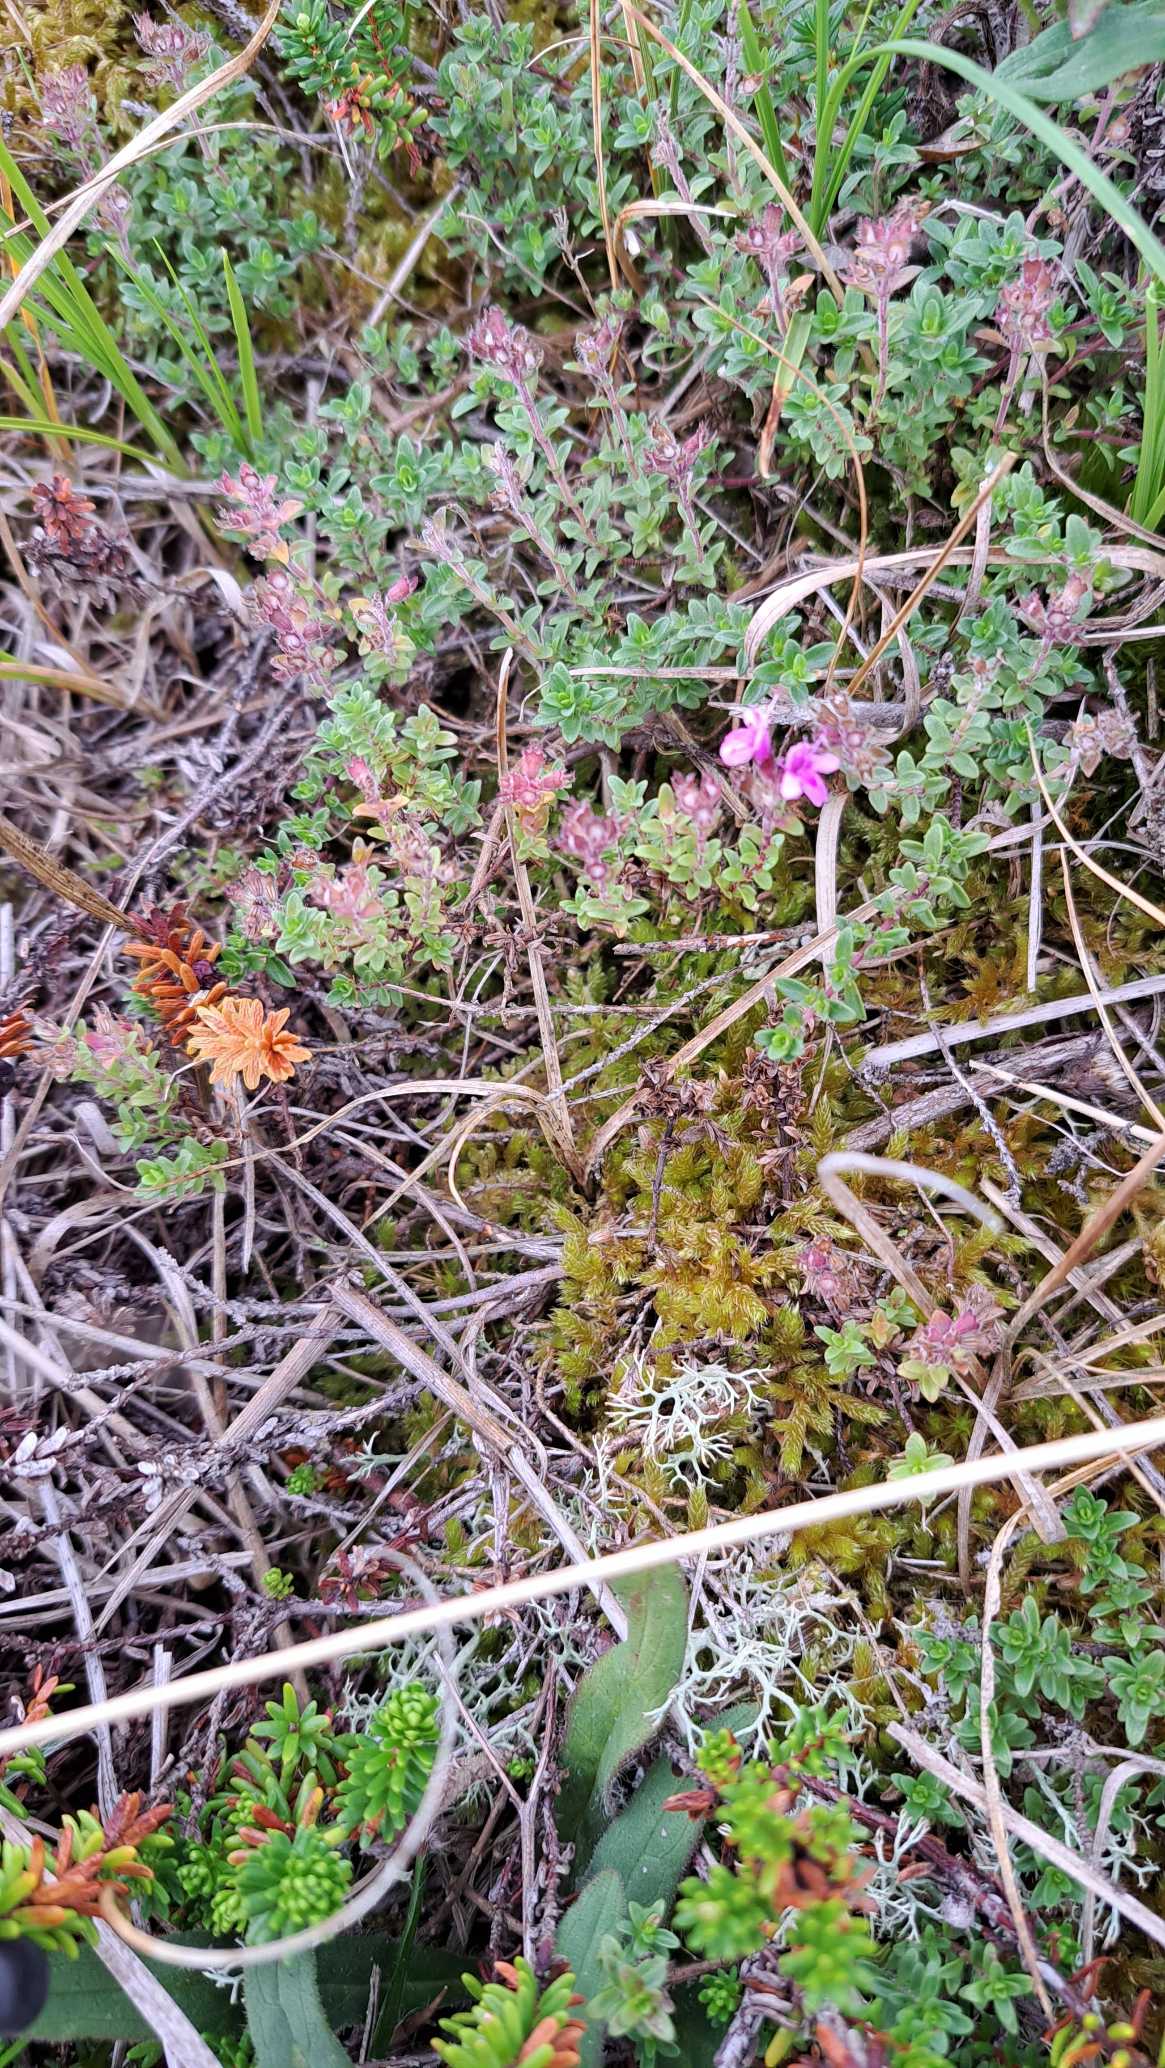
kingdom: Plantae
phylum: Tracheophyta
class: Magnoliopsida
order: Lamiales
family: Lamiaceae
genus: Thymus
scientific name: Thymus serpyllum
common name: Smalbladet timian
